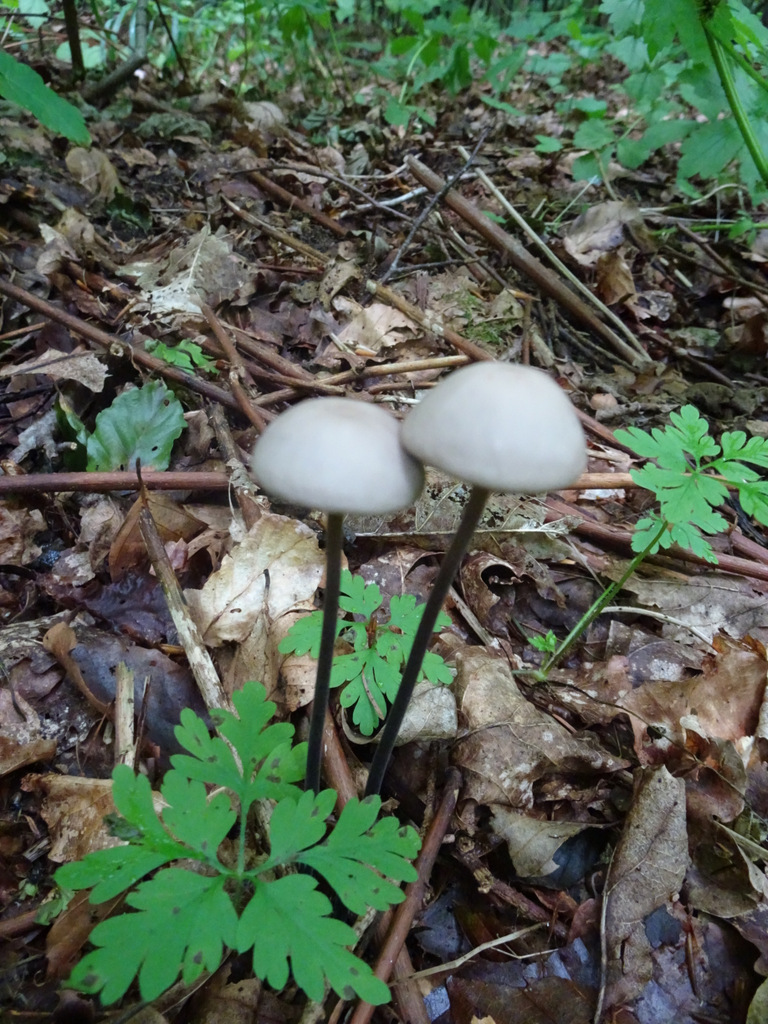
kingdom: Fungi
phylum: Basidiomycota
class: Agaricomycetes
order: Agaricales
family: Omphalotaceae
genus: Mycetinis
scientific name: Mycetinis alliaceus
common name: stor løghat
